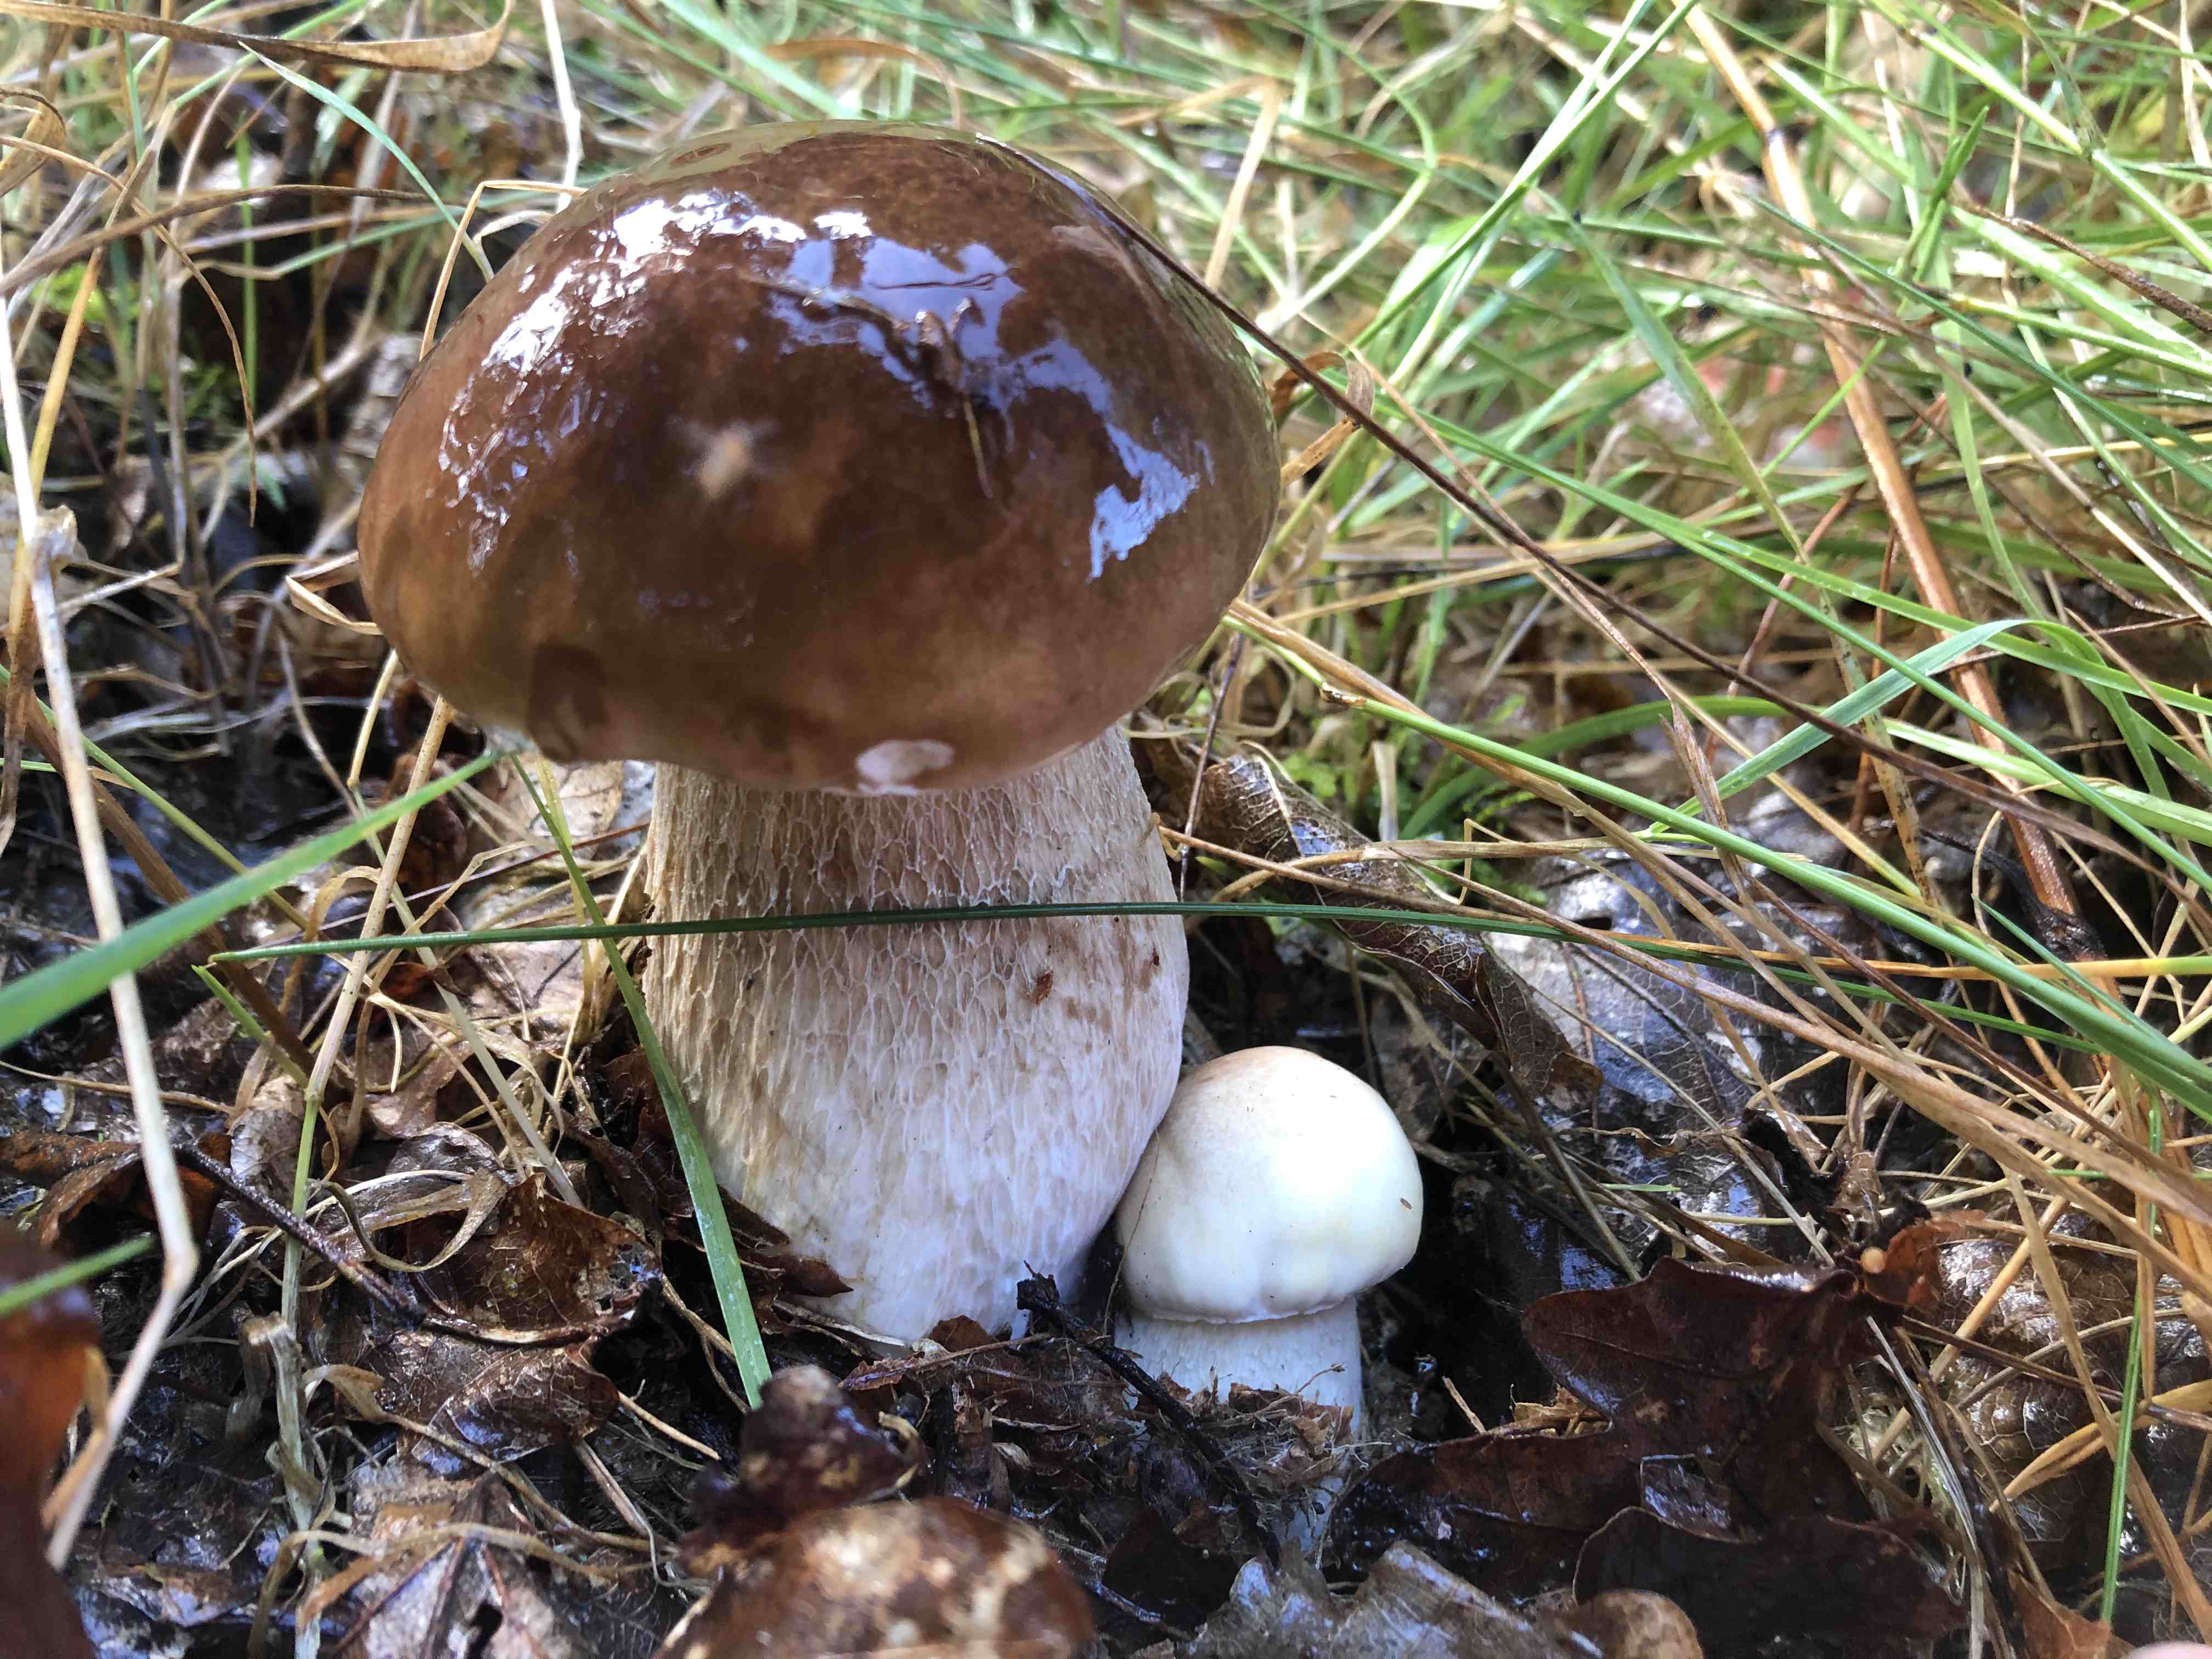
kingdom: Fungi
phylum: Basidiomycota
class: Agaricomycetes
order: Boletales
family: Boletaceae
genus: Boletus
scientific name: Boletus edulis
